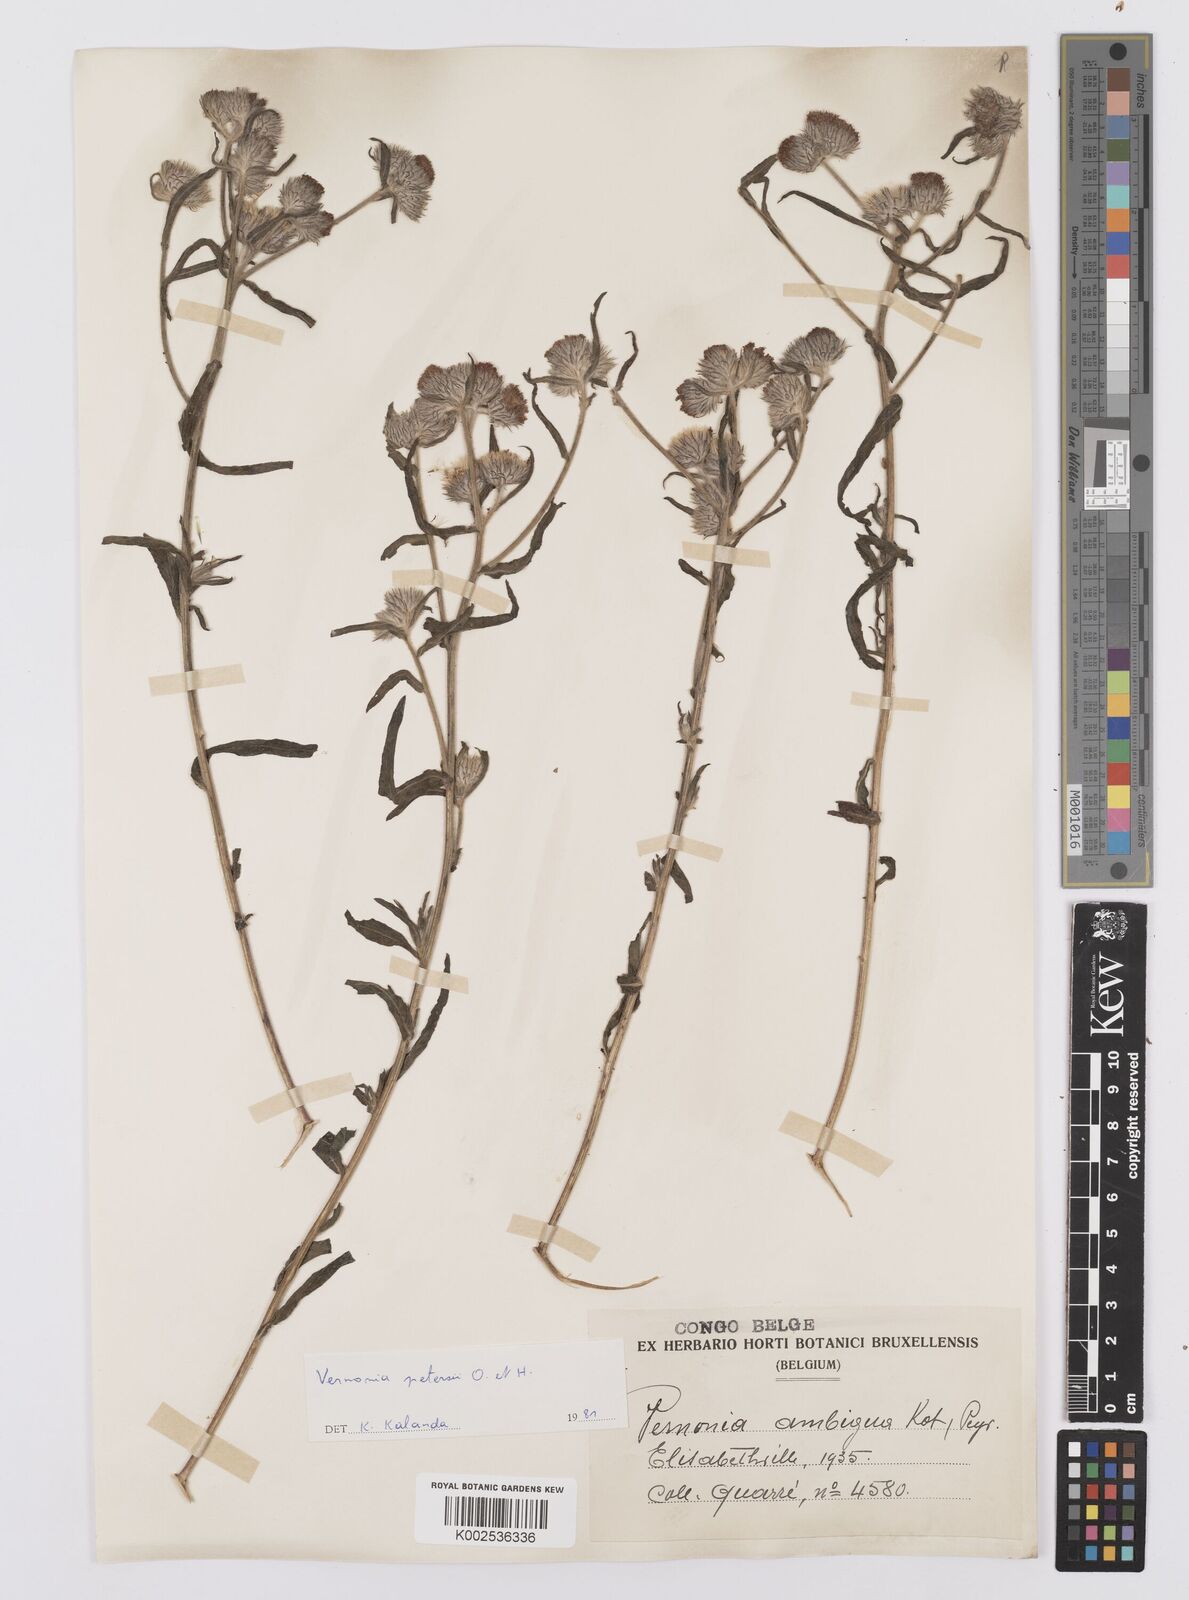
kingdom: Plantae
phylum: Tracheophyta
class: Magnoliopsida
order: Asterales
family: Asteraceae
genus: Vernoniastrum
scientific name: Vernoniastrum latifolium
